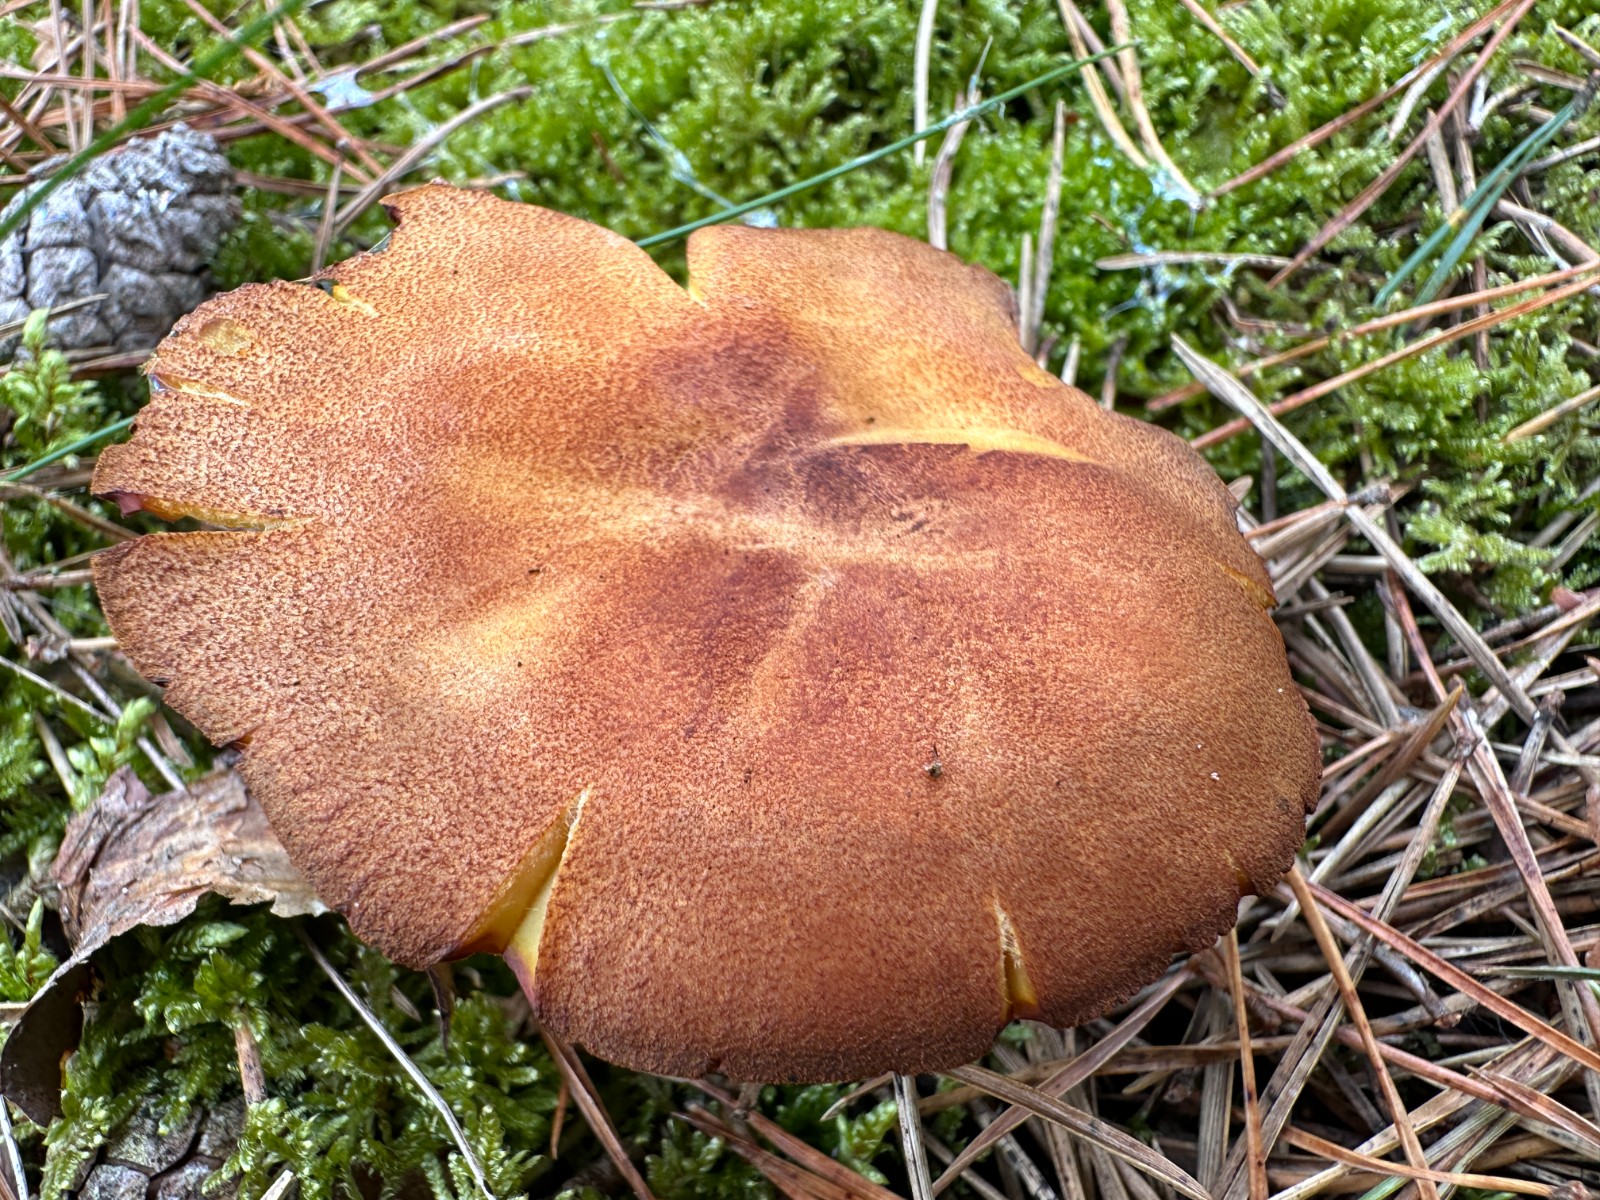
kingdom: Fungi
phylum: Basidiomycota
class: Agaricomycetes
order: Agaricales
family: Tricholomataceae
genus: Tricholomopsis
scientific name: Tricholomopsis rutilans
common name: purpur-væbnerhat
